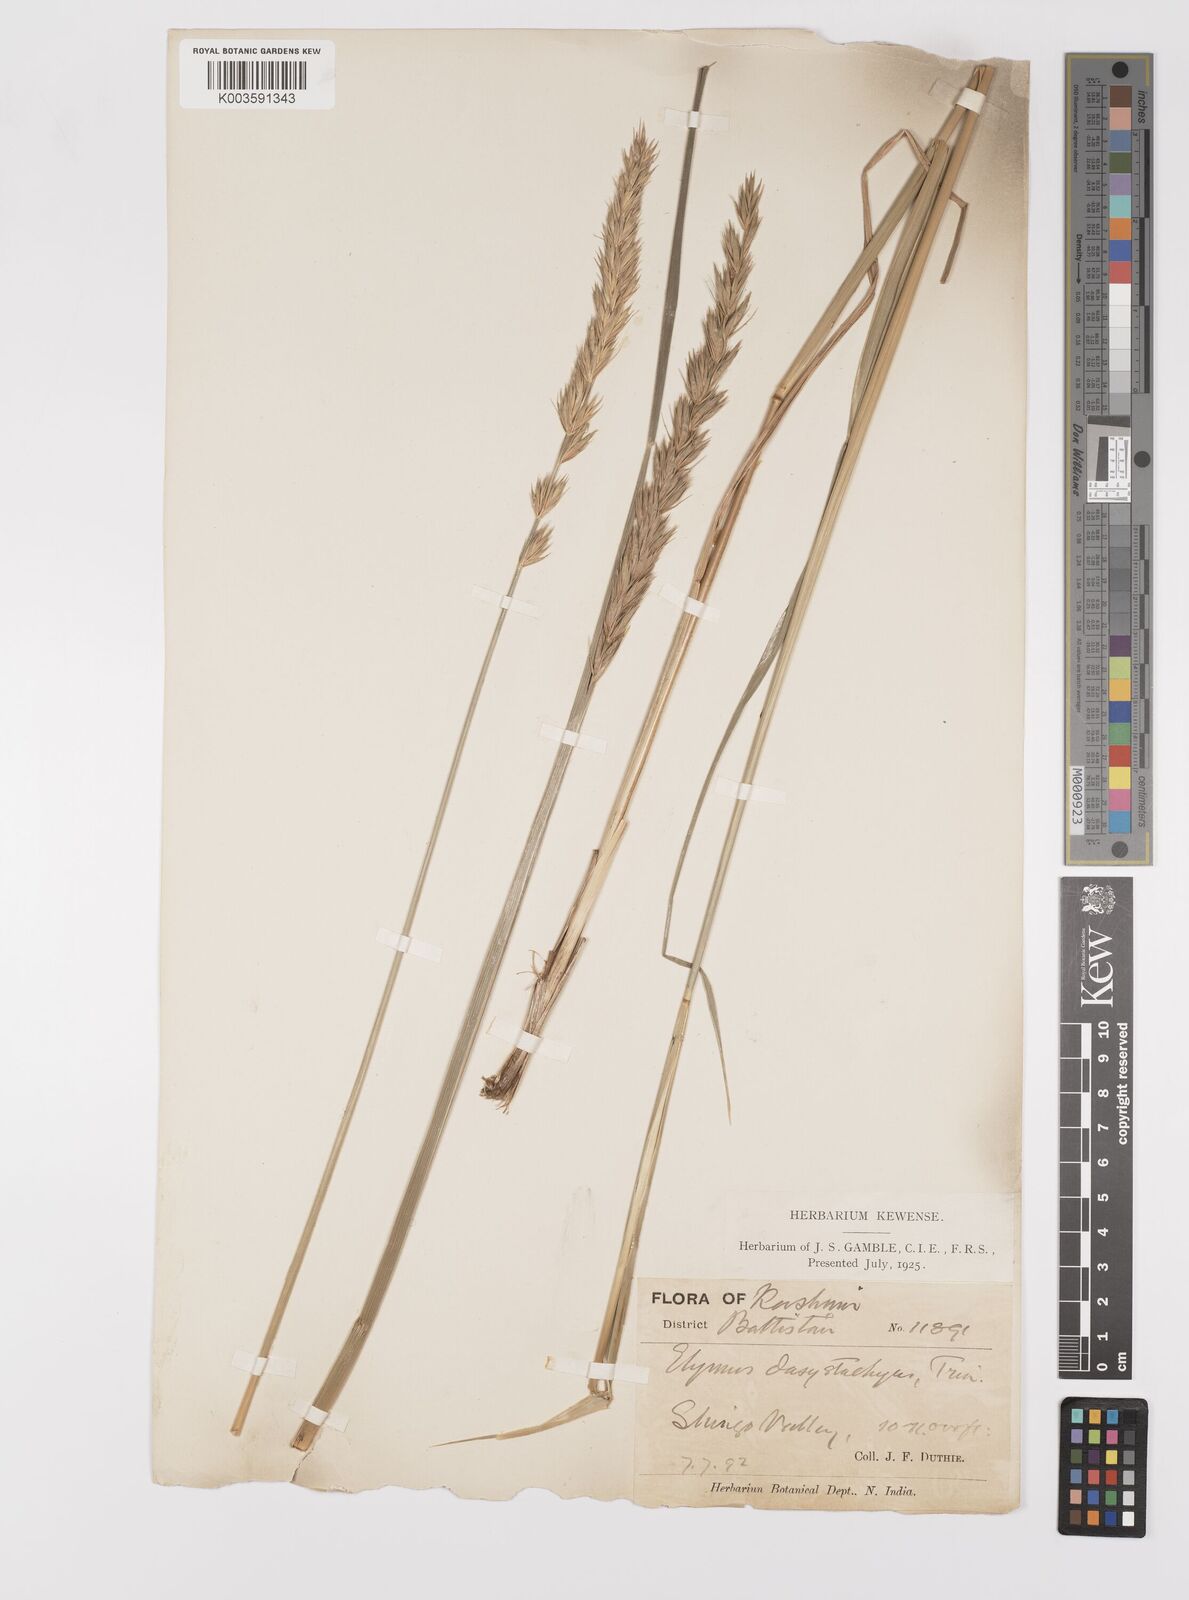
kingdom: Plantae
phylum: Tracheophyta
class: Liliopsida
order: Poales
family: Poaceae
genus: Leymus
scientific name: Leymus secalinus
